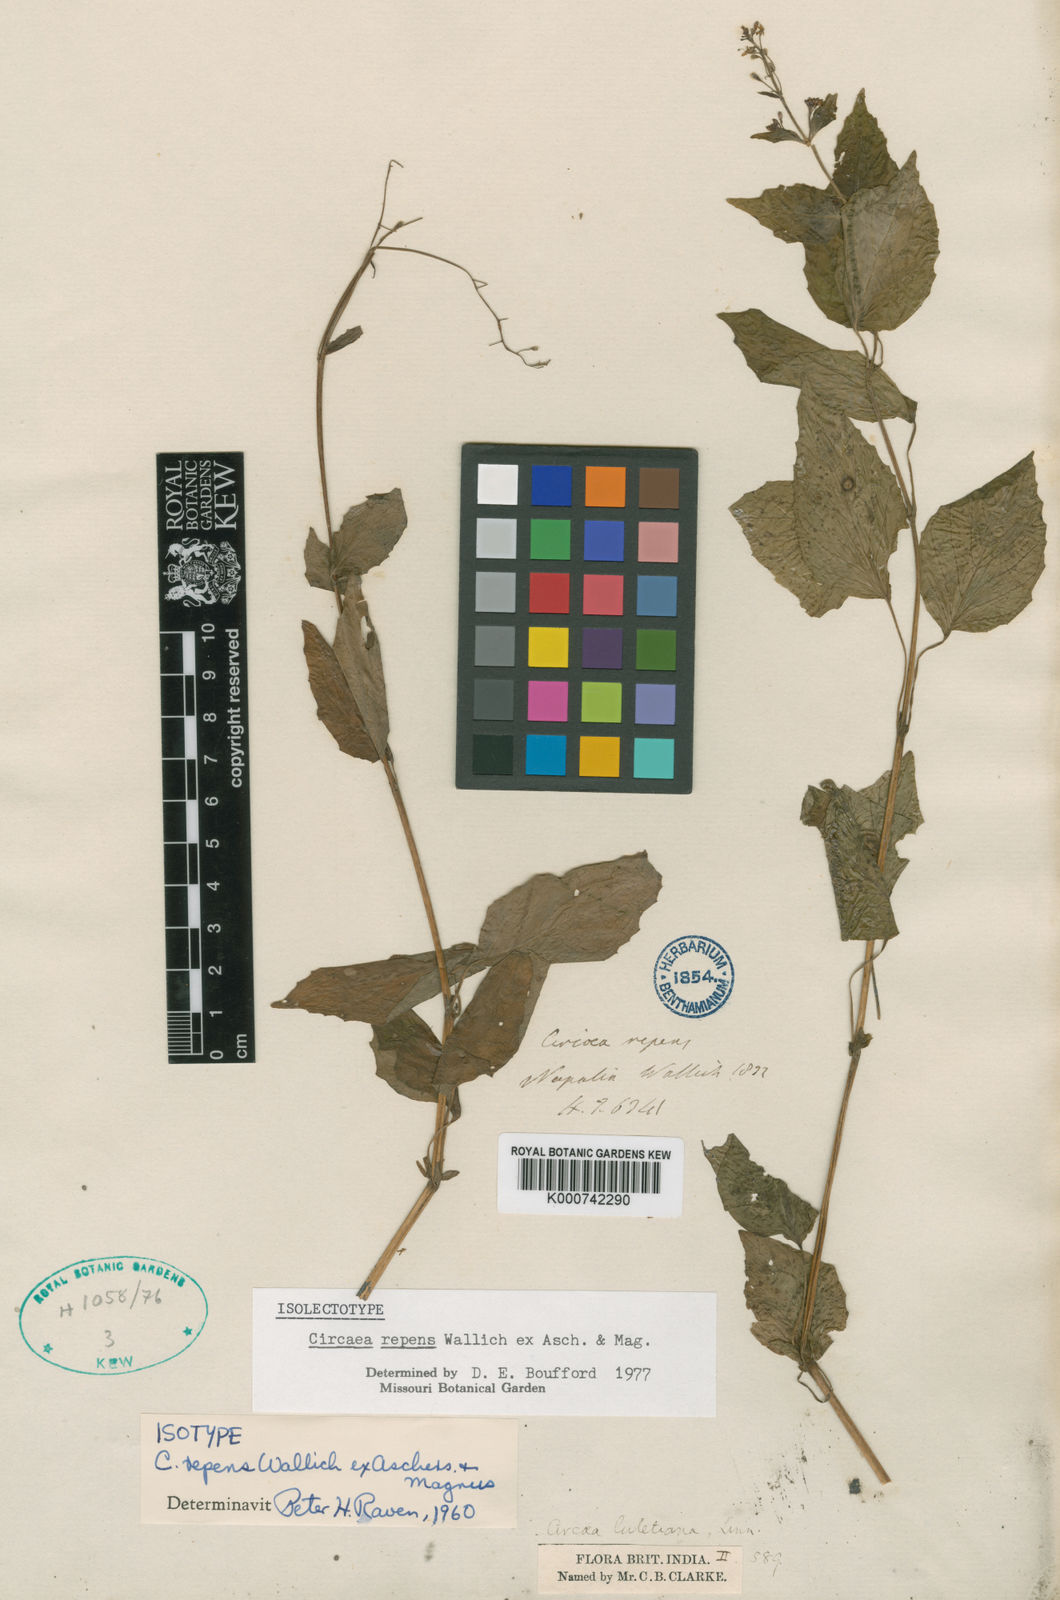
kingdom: Plantae
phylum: Tracheophyta
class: Magnoliopsida
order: Myrtales
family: Onagraceae
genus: Circaea
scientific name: Circaea repens
